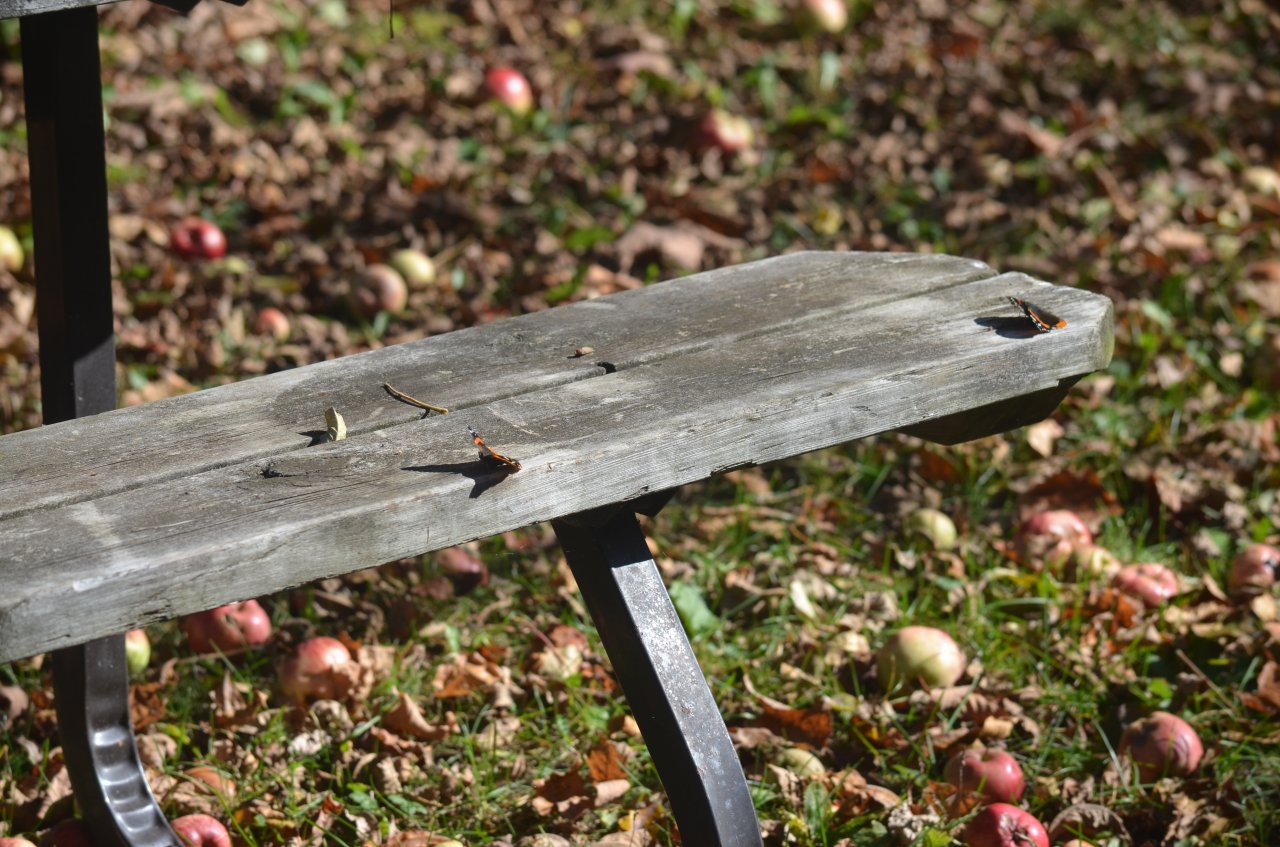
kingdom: Animalia
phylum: Arthropoda
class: Insecta
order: Lepidoptera
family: Nymphalidae
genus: Vanessa
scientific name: Vanessa atalanta
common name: Red Admiral
